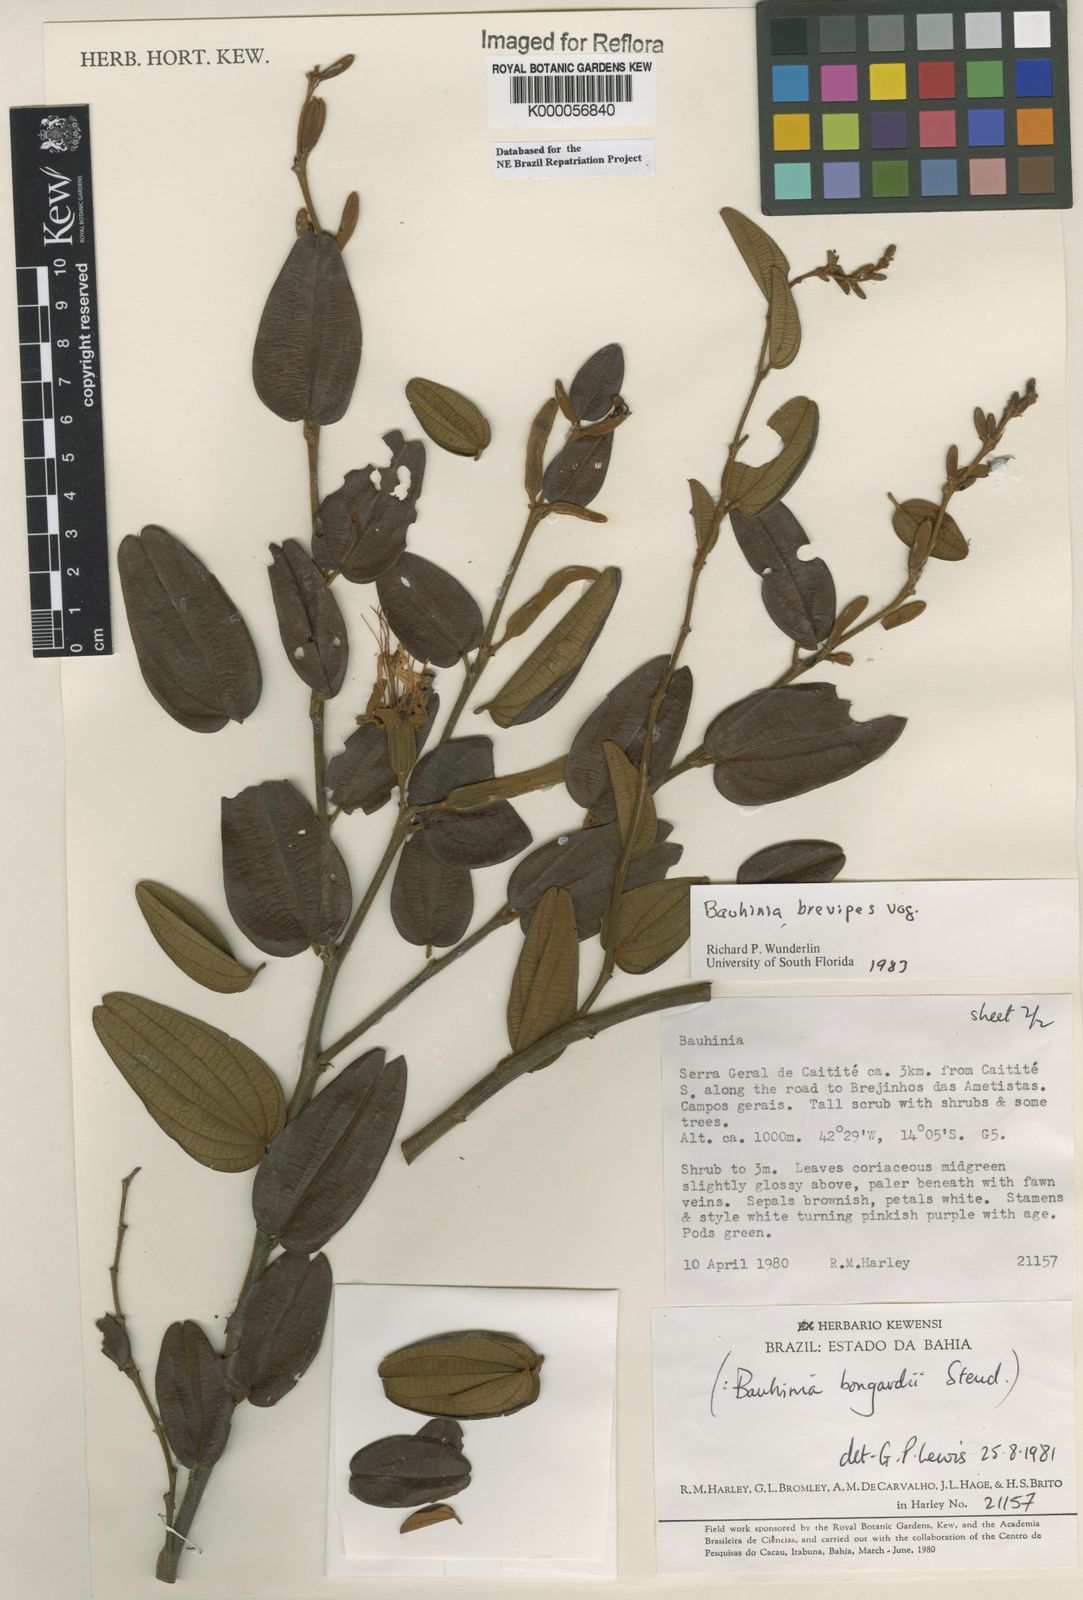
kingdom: Plantae
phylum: Tracheophyta
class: Magnoliopsida
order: Fabales
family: Fabaceae
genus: Bauhinia
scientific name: Bauhinia brevipes
